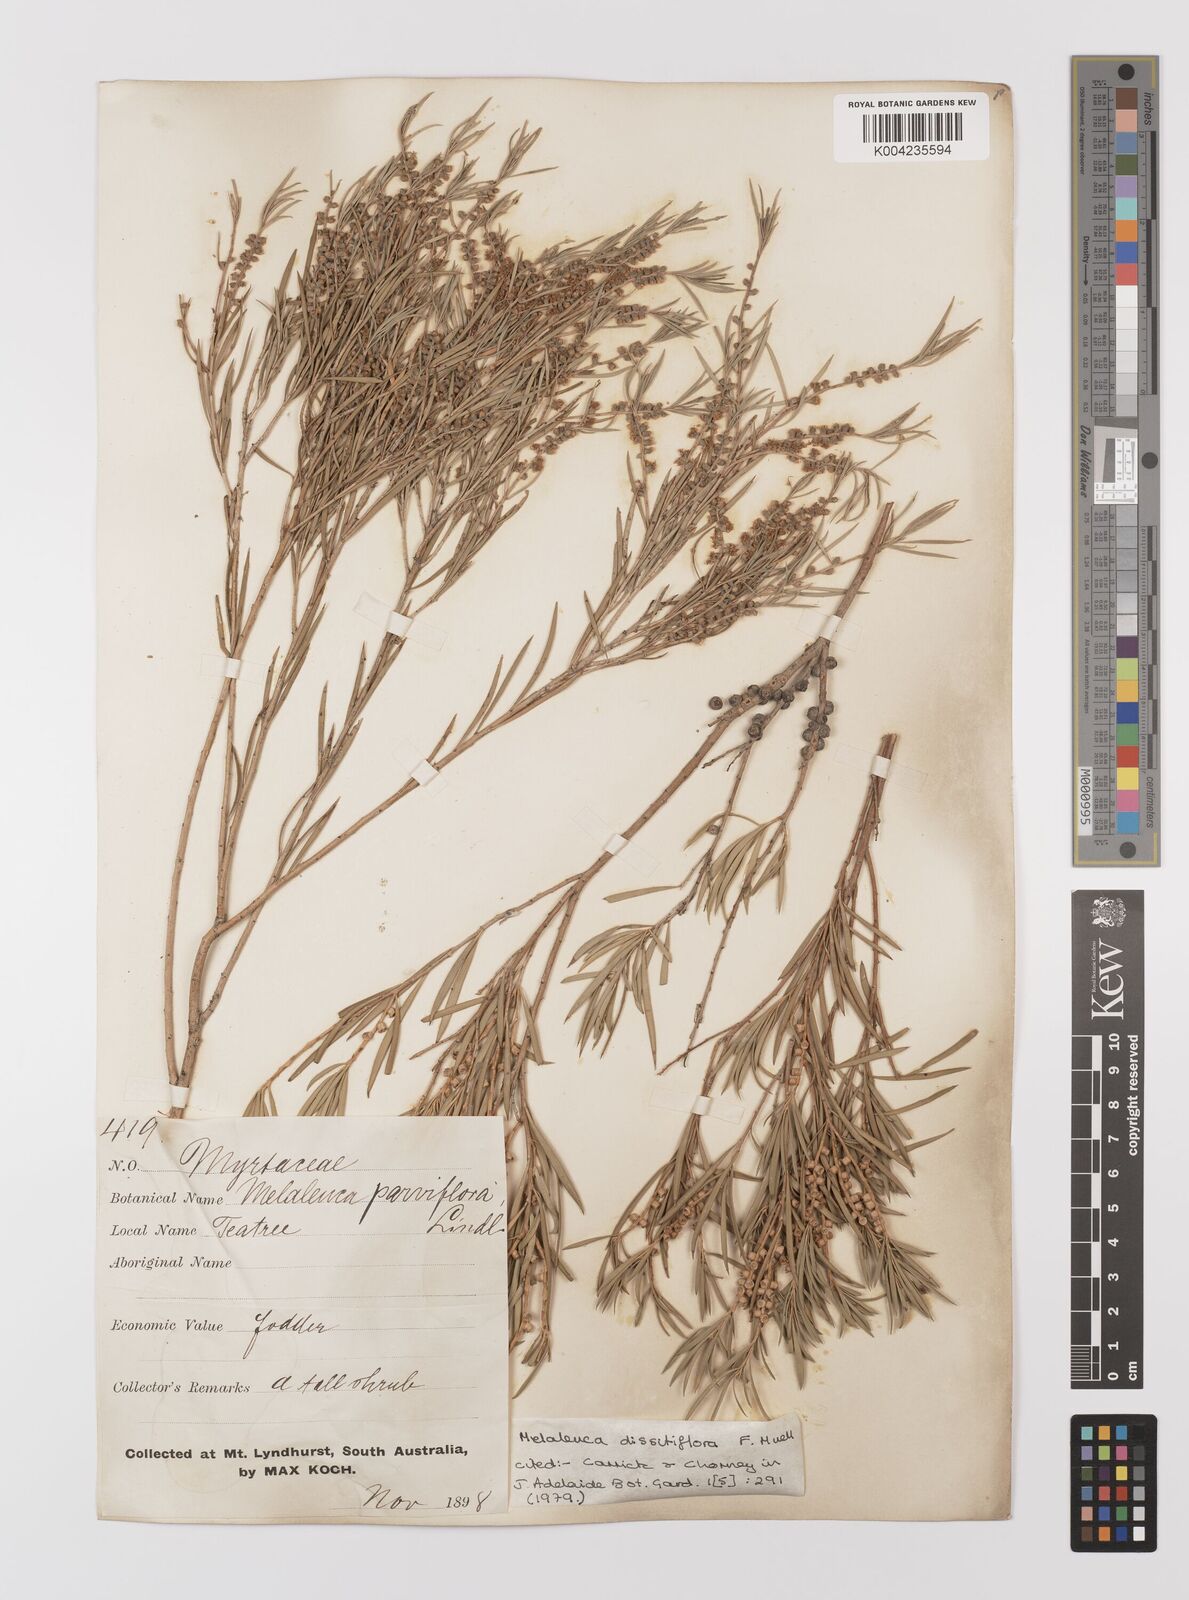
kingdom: Plantae
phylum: Tracheophyta
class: Magnoliopsida
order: Myrtales
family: Myrtaceae
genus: Melaleuca
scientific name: Melaleuca dissitiflora
